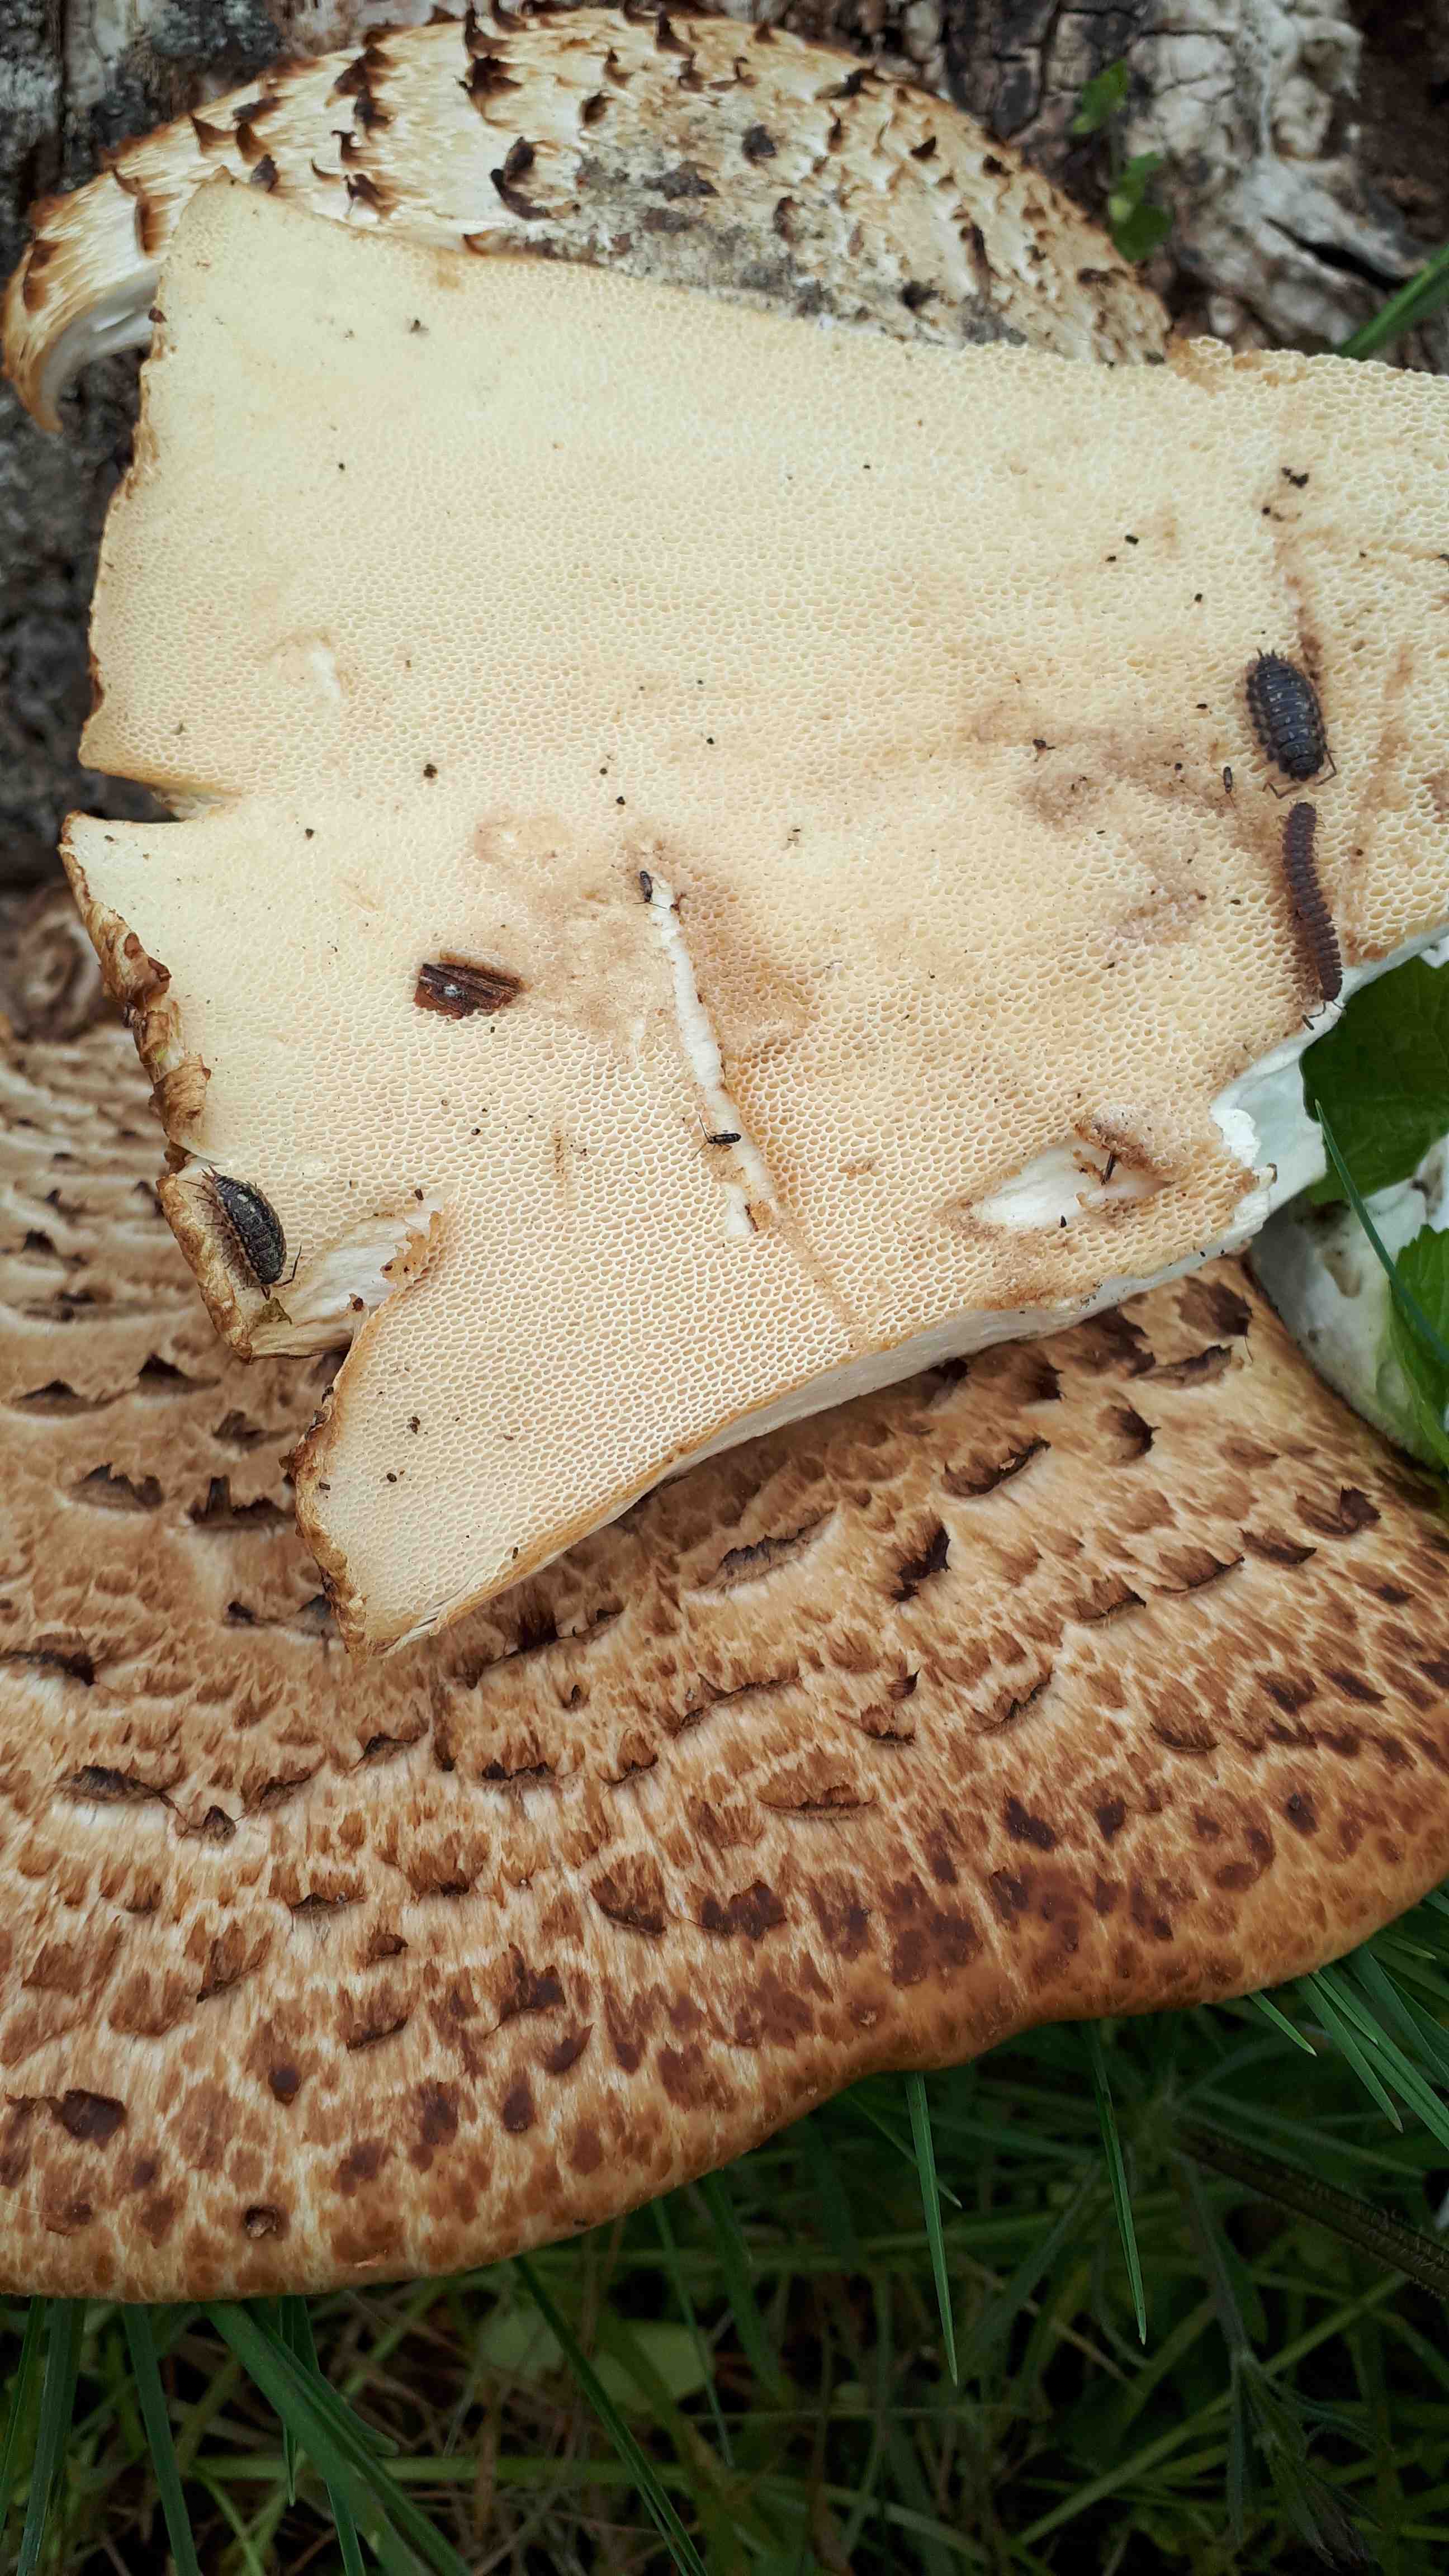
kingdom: Fungi
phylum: Basidiomycota
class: Agaricomycetes
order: Polyporales
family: Polyporaceae
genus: Cerioporus
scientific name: Cerioporus squamosus
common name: skællet stilkporesvamp
